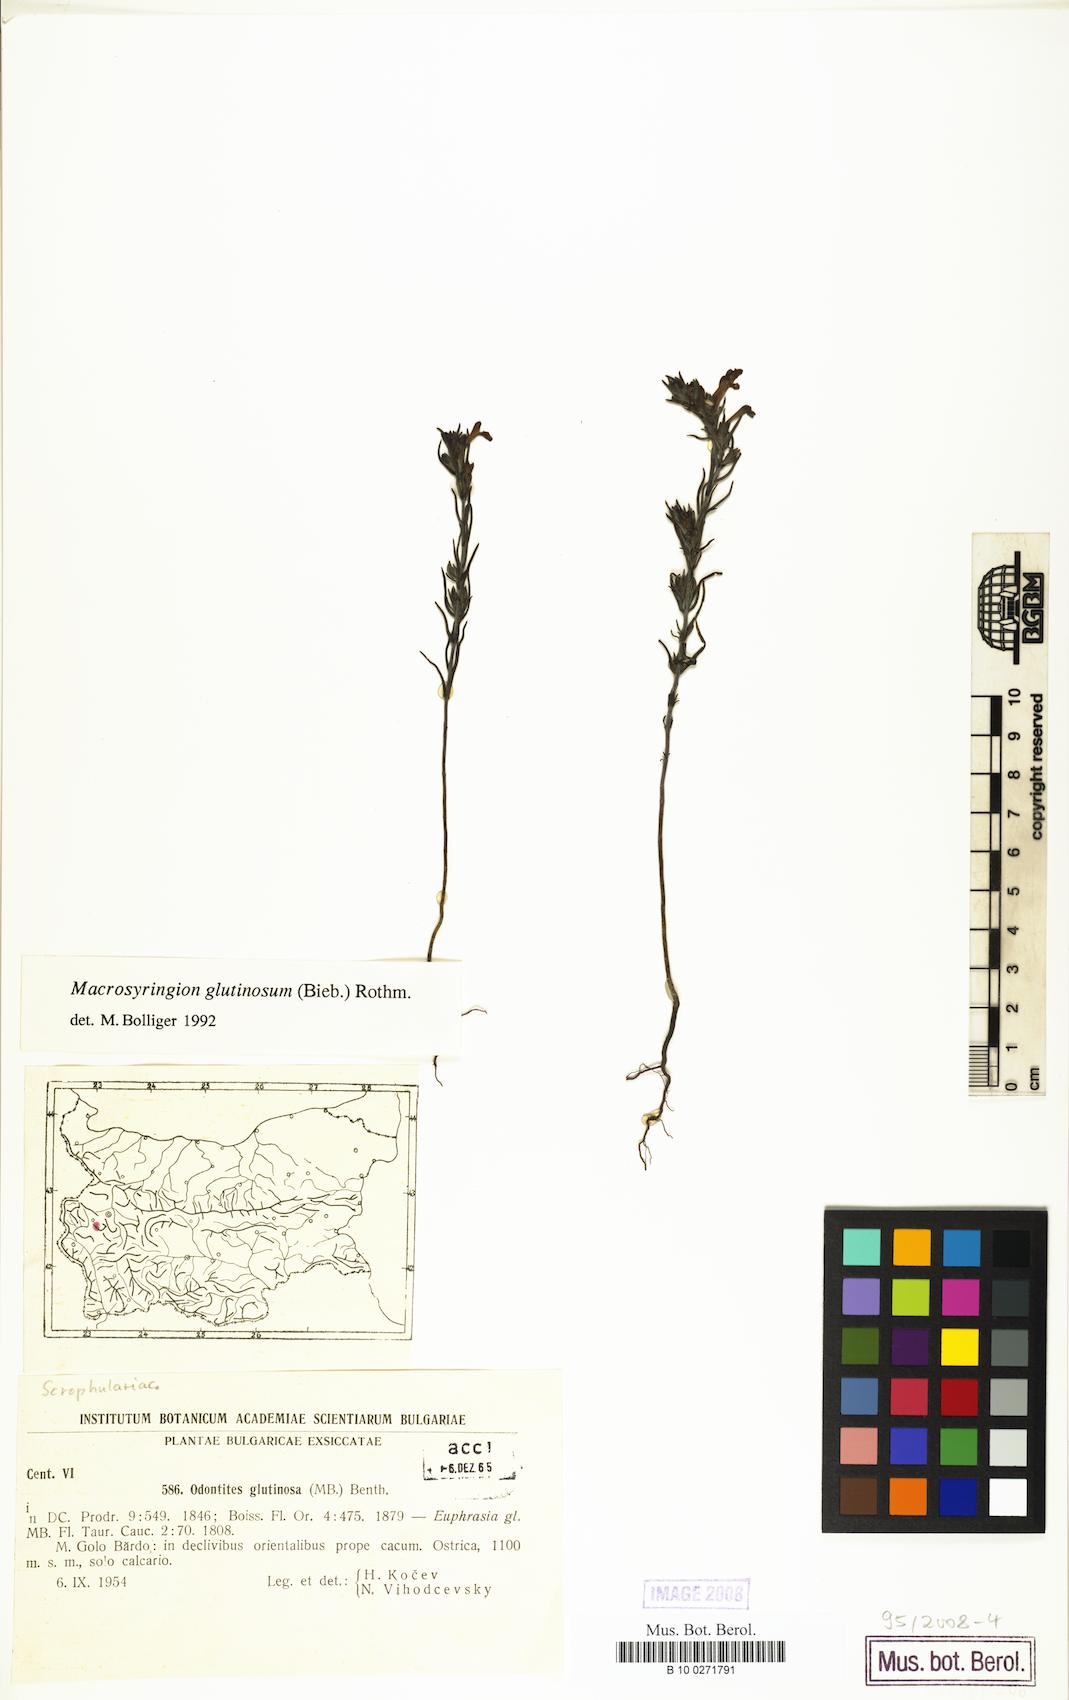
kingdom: Plantae
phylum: Tracheophyta
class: Magnoliopsida
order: Lamiales
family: Orobanchaceae
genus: Odontites
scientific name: Odontites glutinosus
